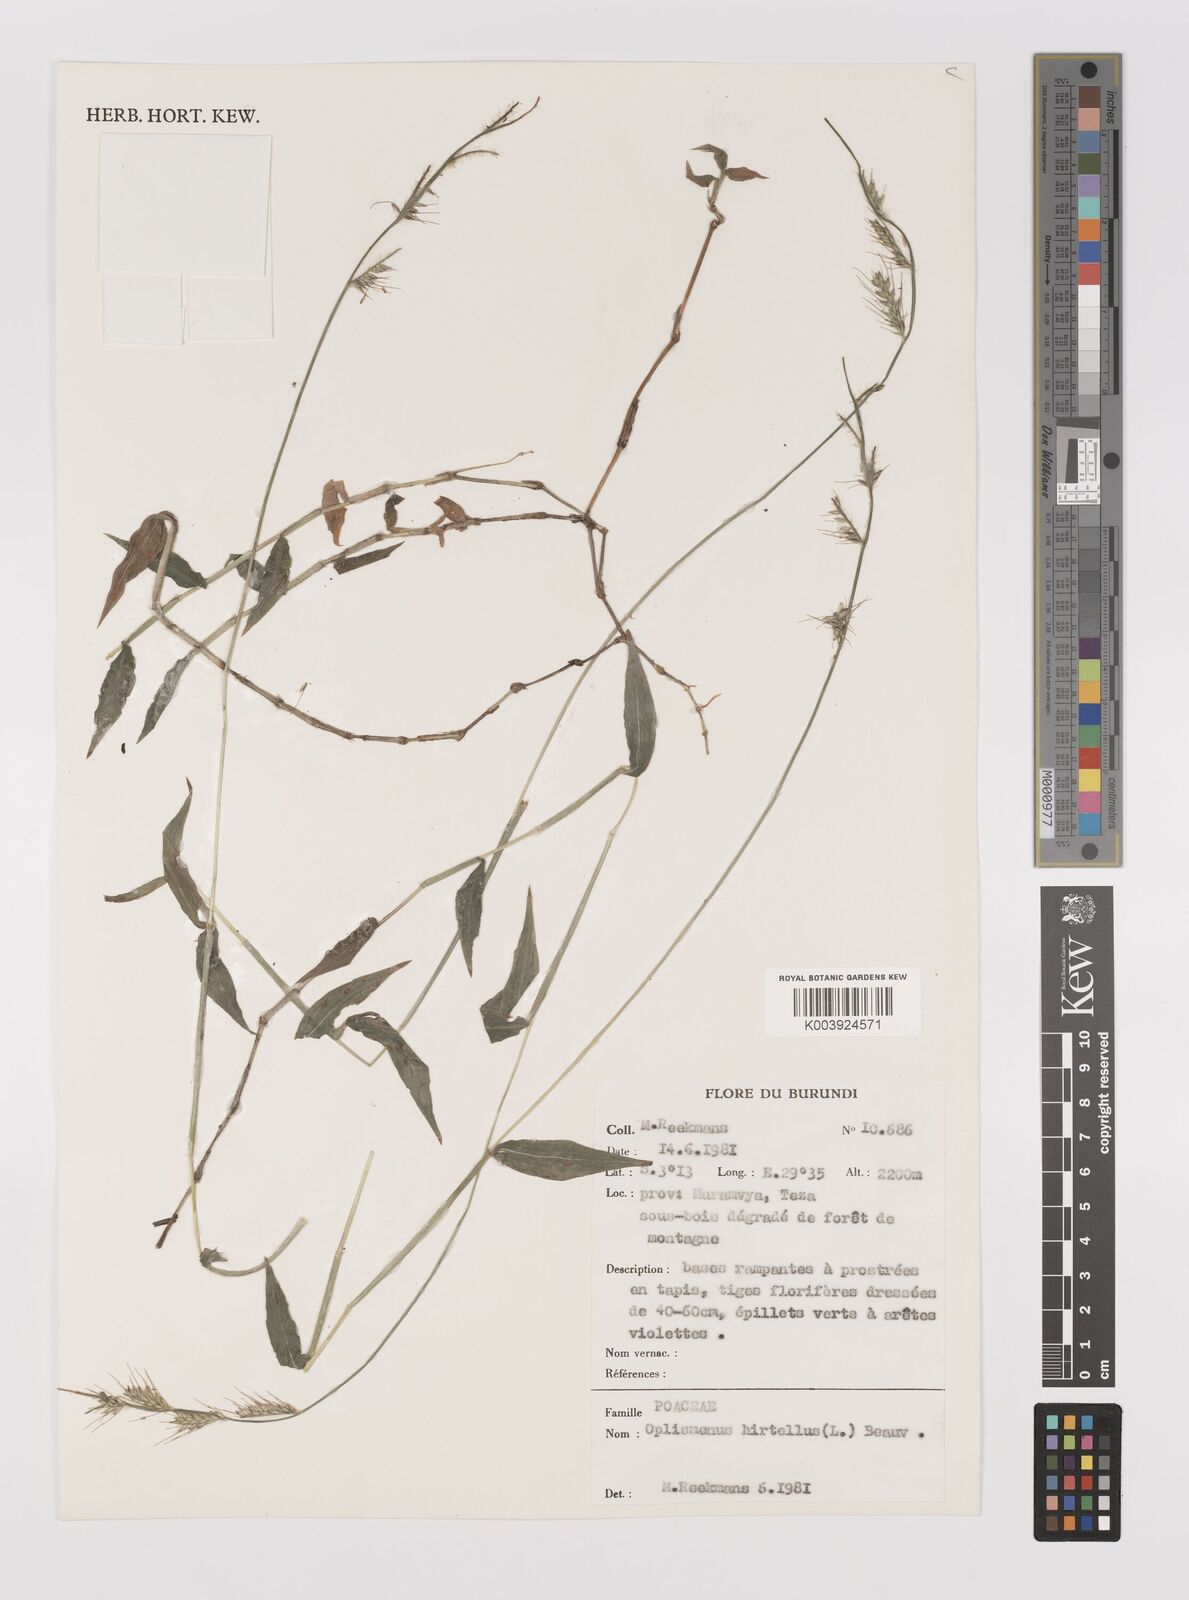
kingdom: Plantae
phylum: Tracheophyta
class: Liliopsida
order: Poales
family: Poaceae
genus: Oplismenus
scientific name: Oplismenus hirtellus
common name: Basketgrass
